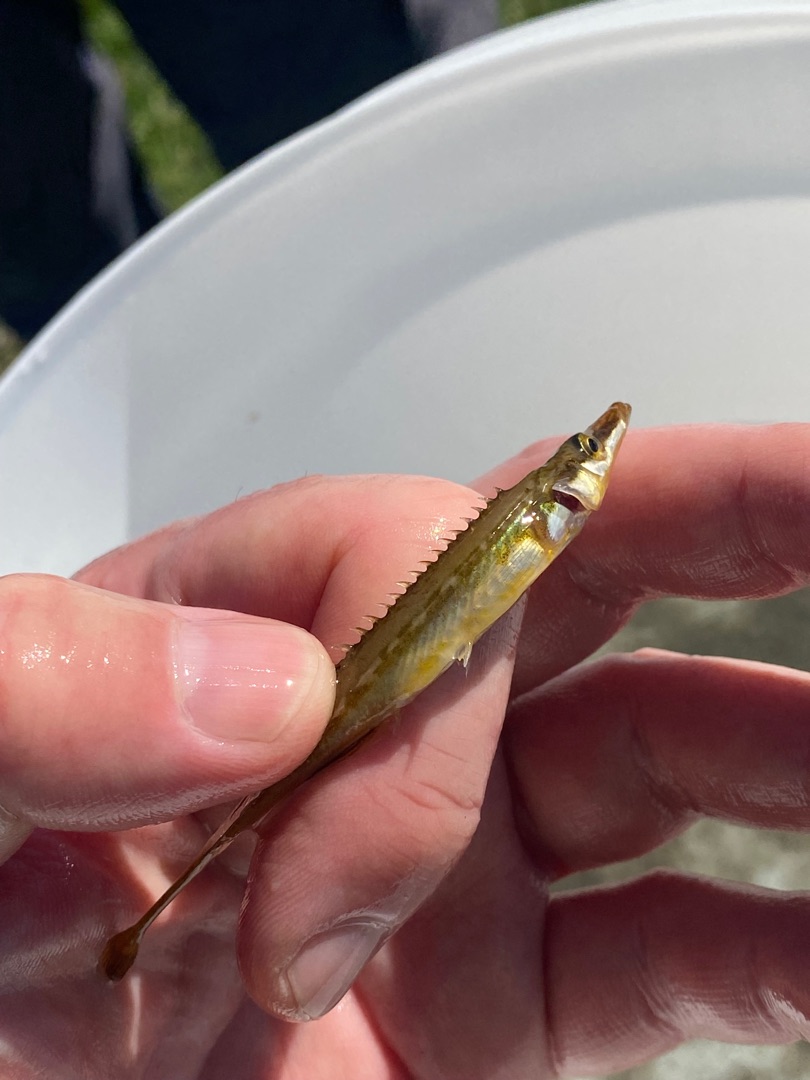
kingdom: Animalia
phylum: Chordata
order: Gasterosteiformes
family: Gasterosteidae
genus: Spinachia
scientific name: Spinachia spinachia
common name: Tangsnarre
